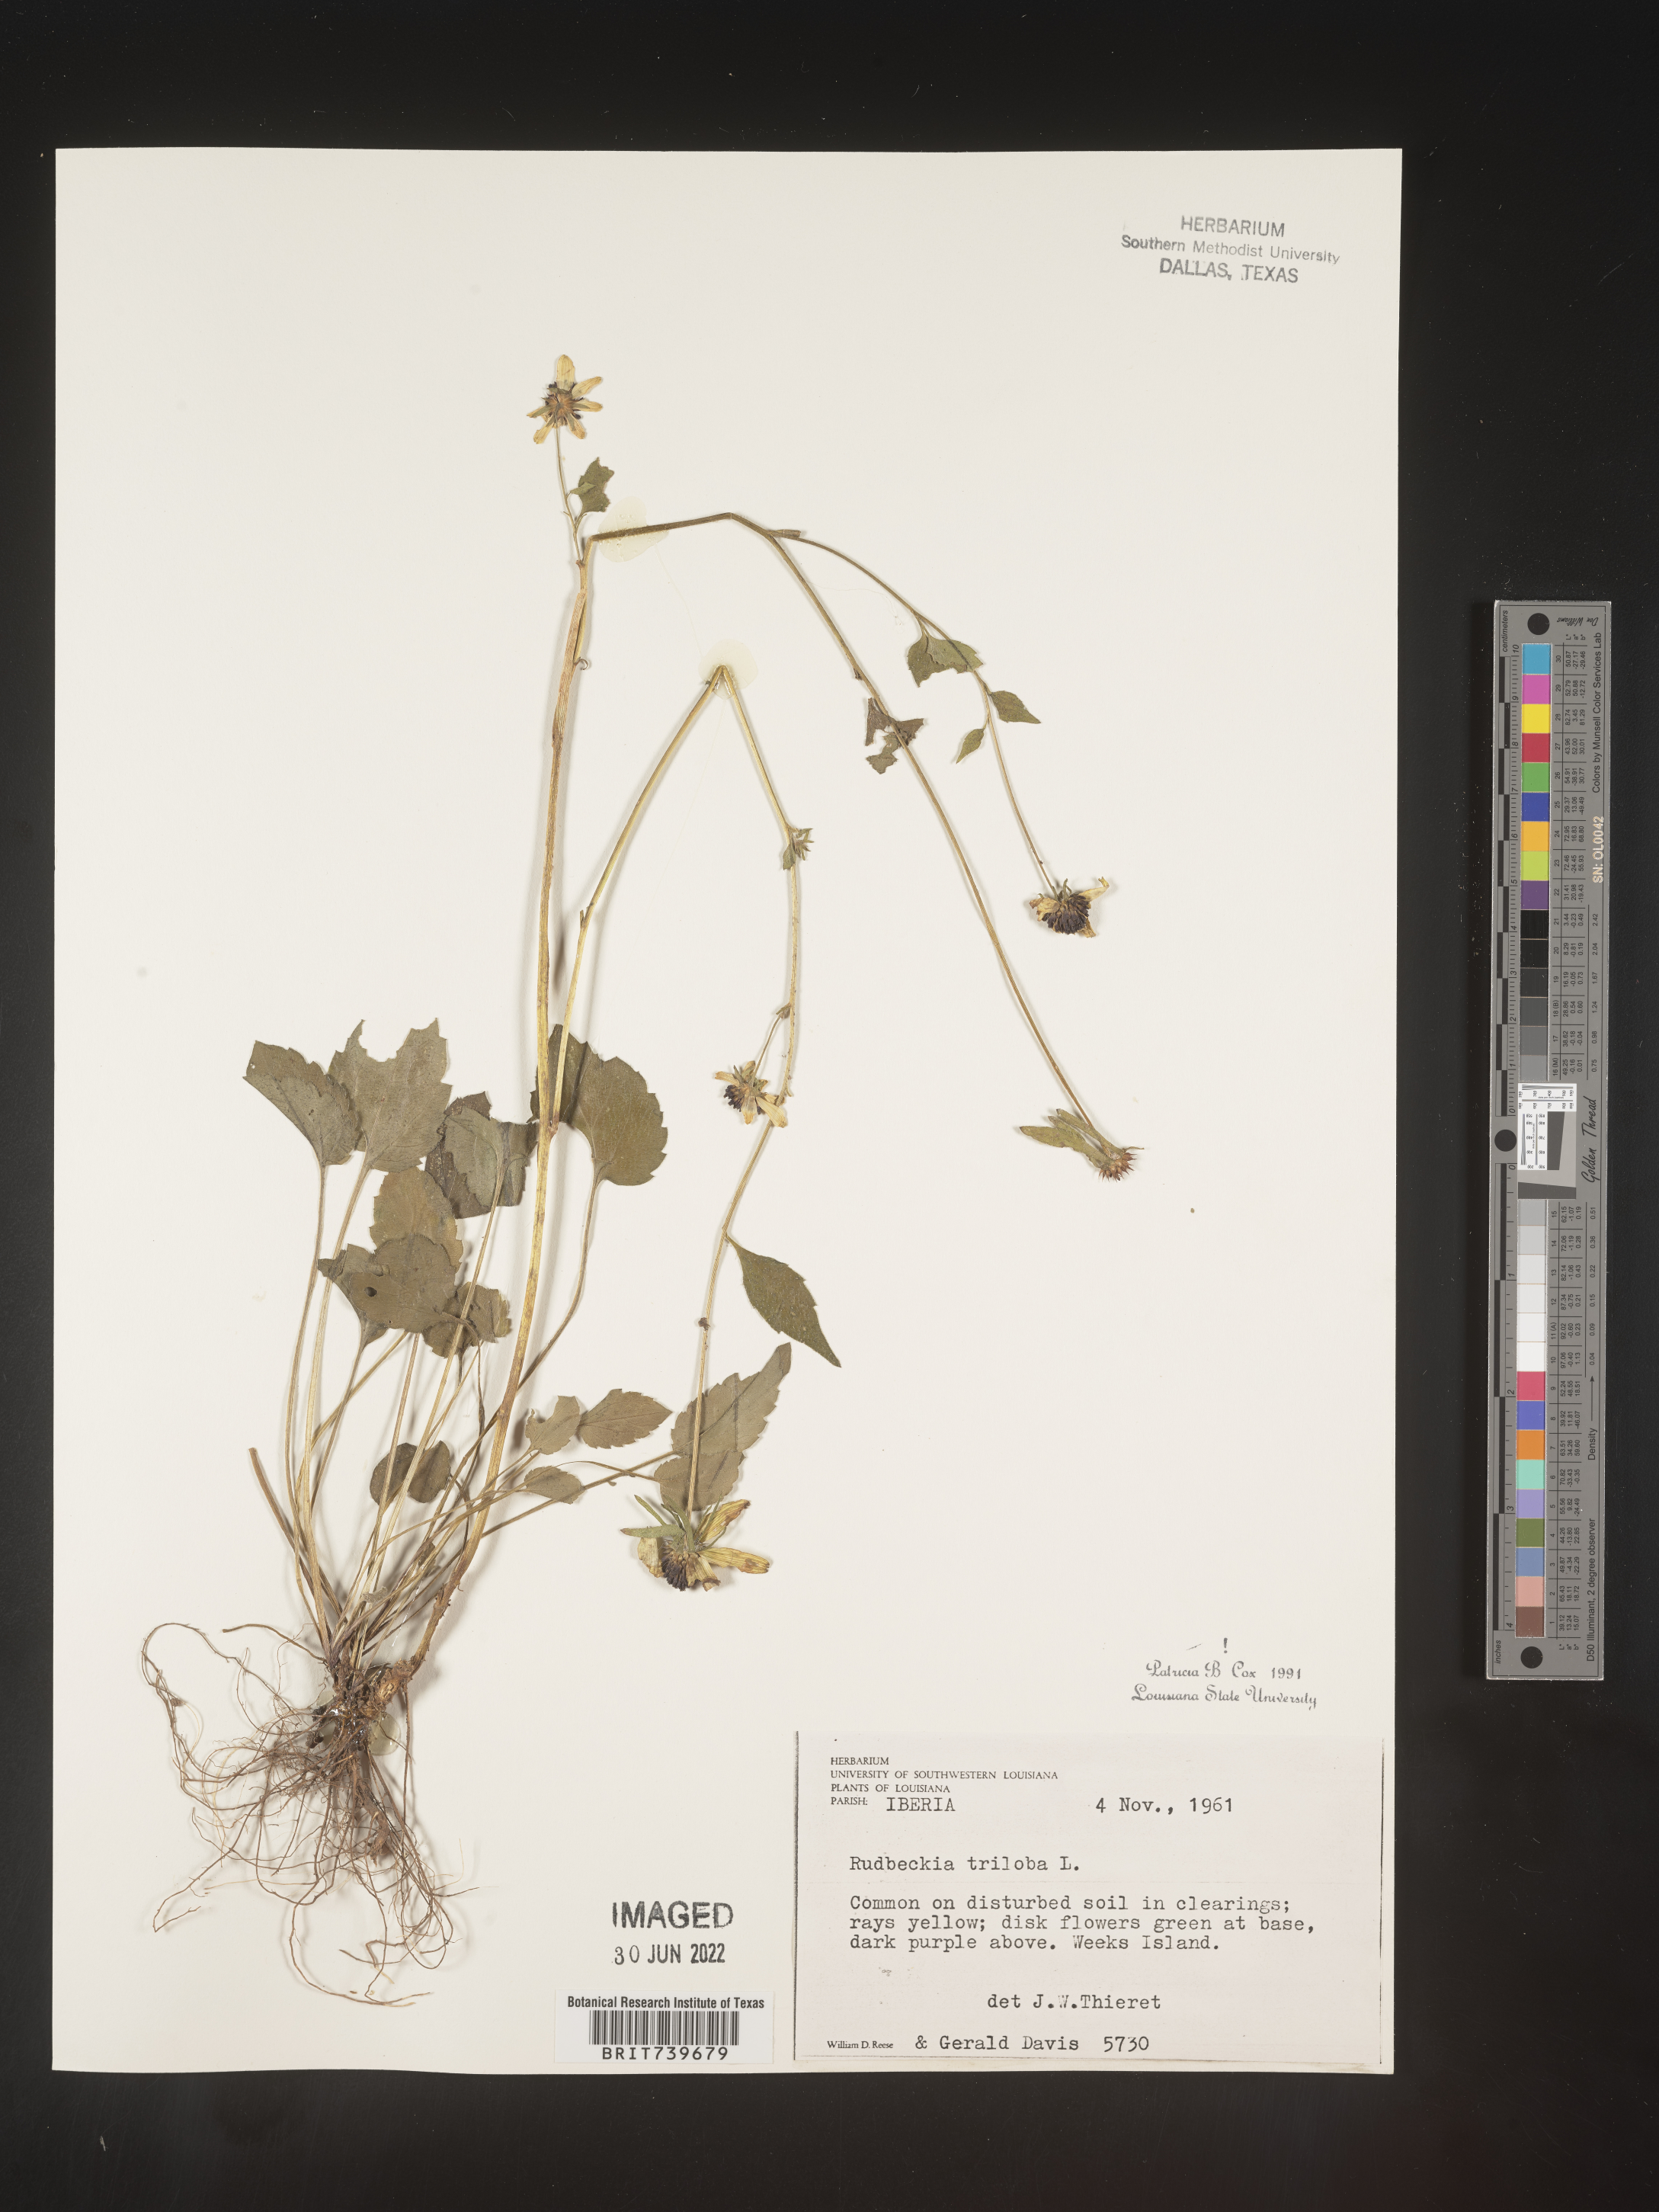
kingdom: Plantae
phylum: Tracheophyta
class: Magnoliopsida
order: Asterales
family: Asteraceae
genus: Rudbeckia
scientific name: Rudbeckia triloba
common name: Thin-leaved coneflower
